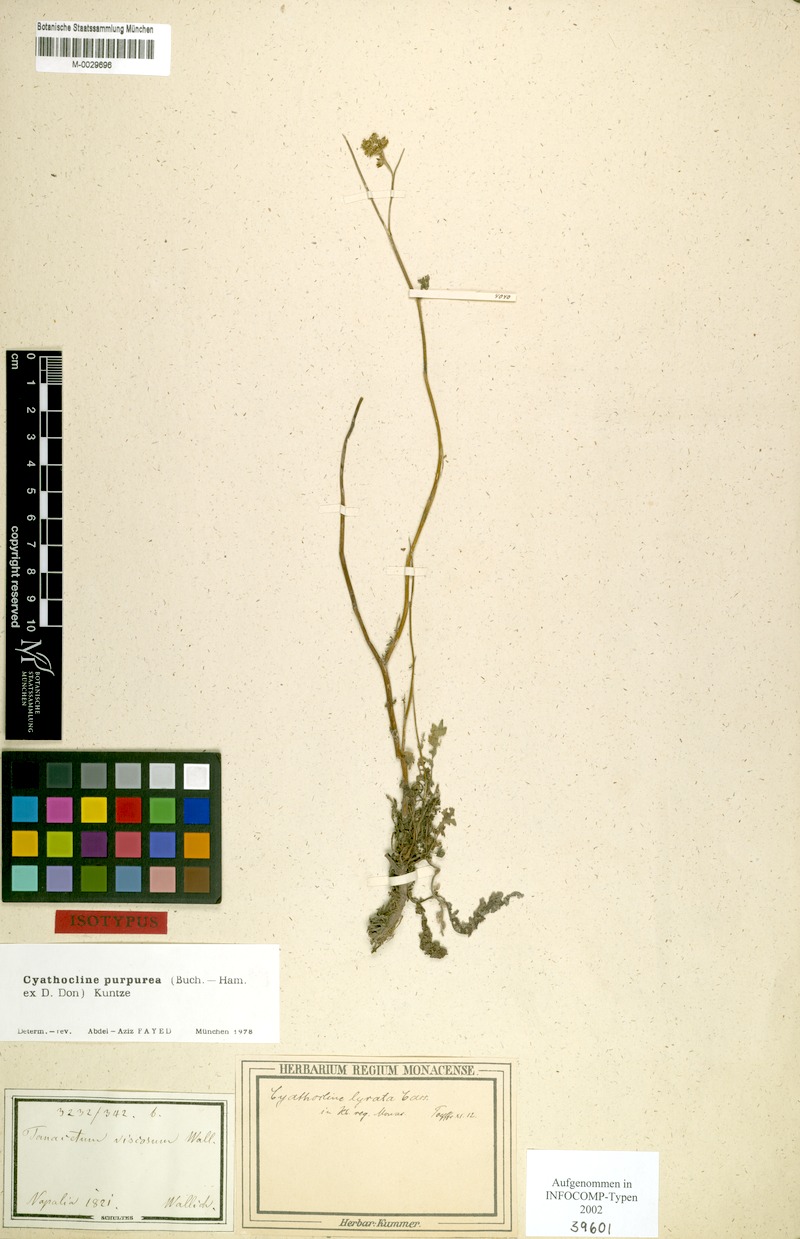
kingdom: Plantae
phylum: Tracheophyta
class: Magnoliopsida
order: Asterales
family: Asteraceae
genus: Cyathocline
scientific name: Cyathocline purpurea
